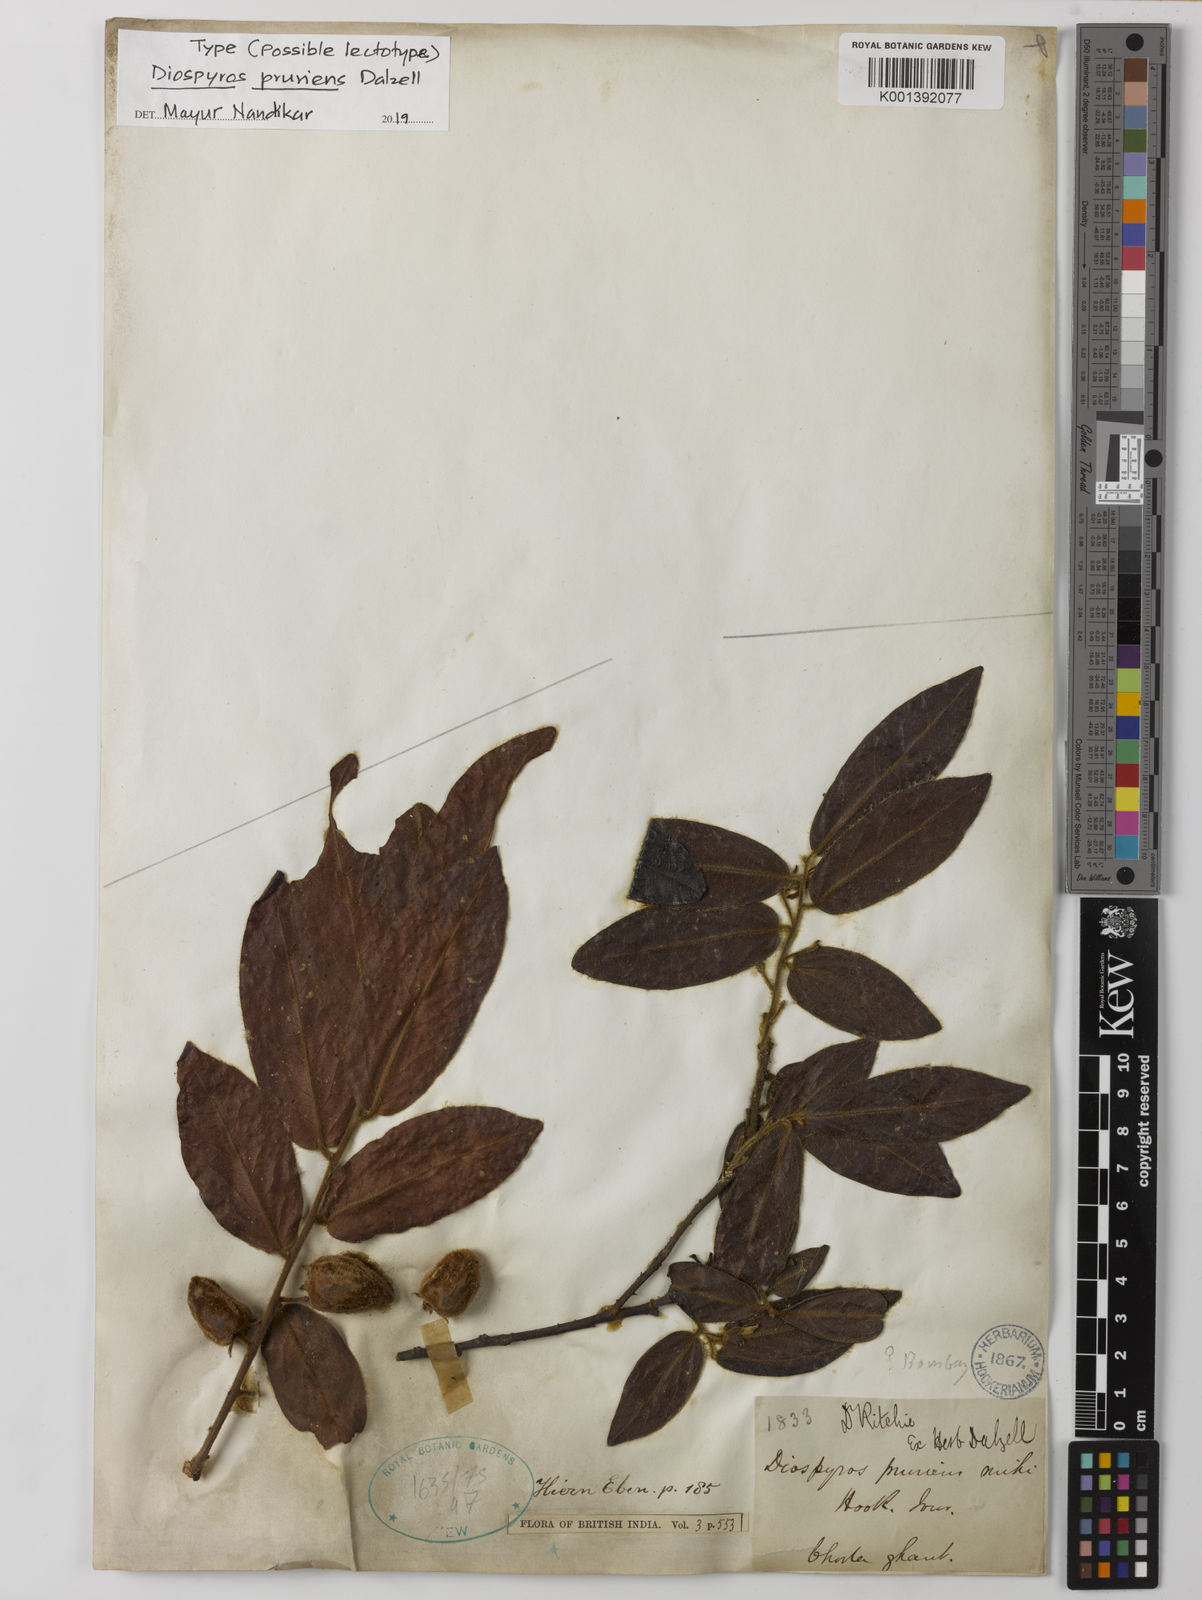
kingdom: Plantae
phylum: Tracheophyta
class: Magnoliopsida
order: Ericales
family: Ebenaceae
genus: Diospyros
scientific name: Diospyros pruriens
